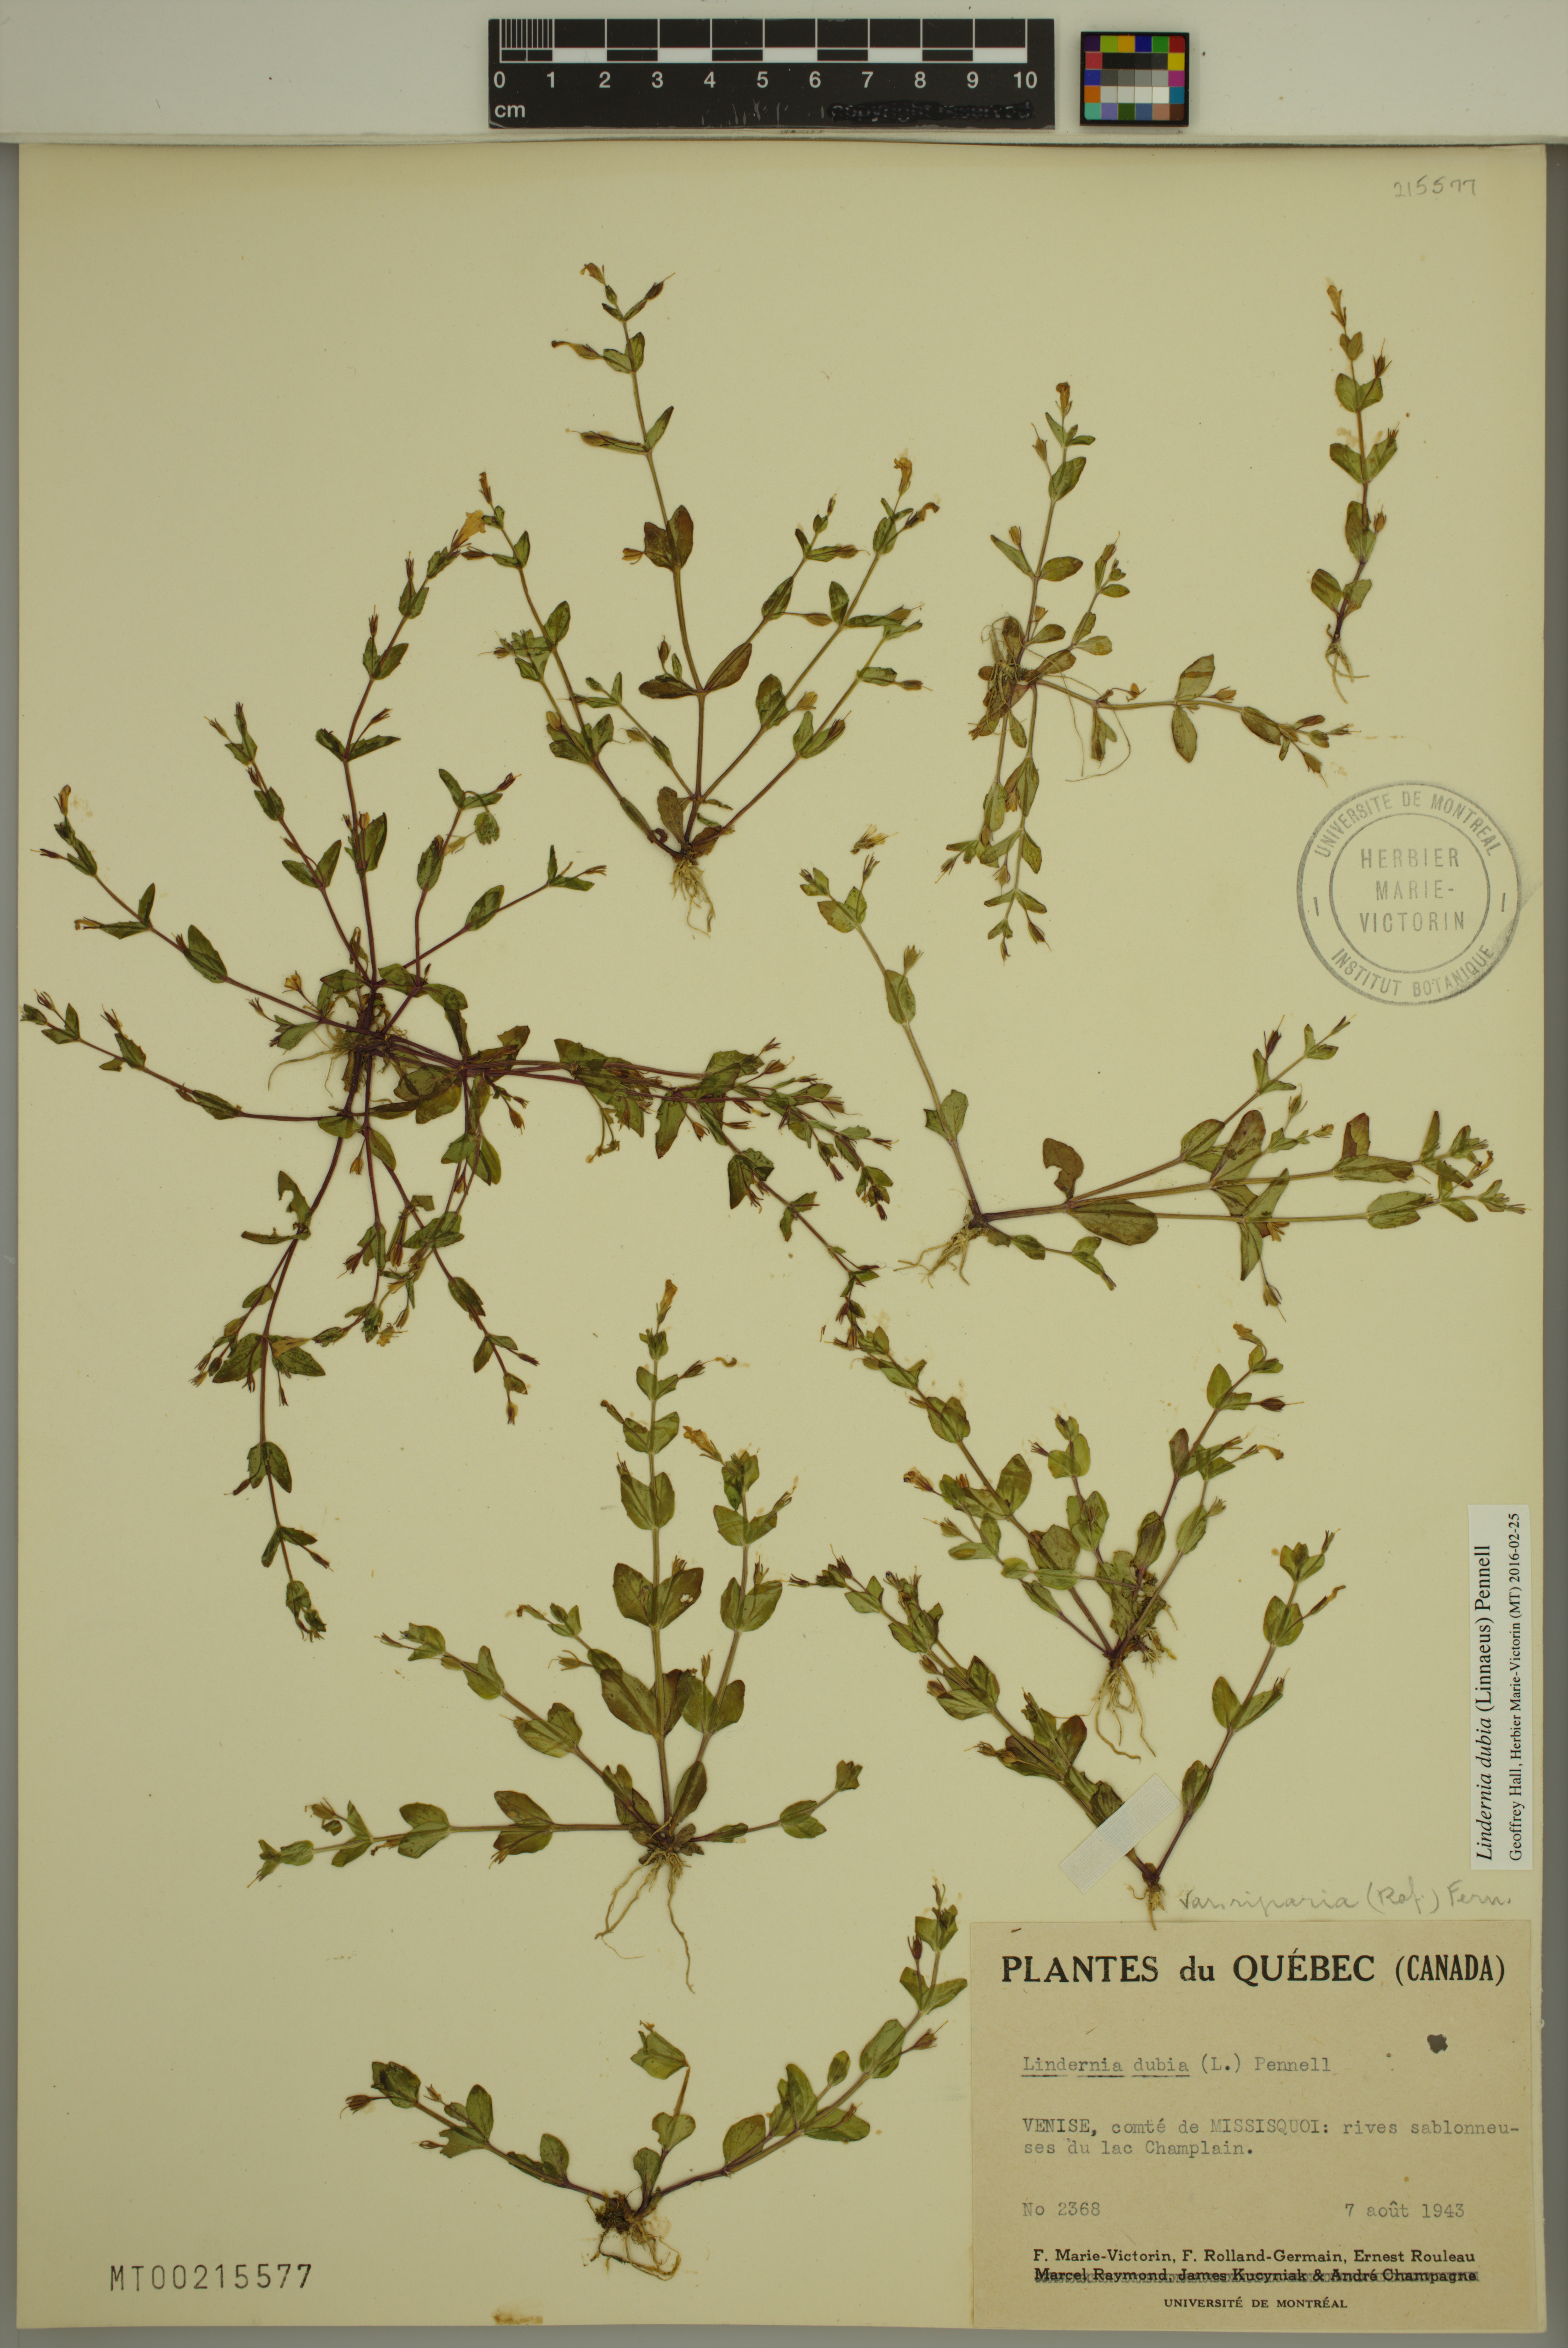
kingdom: Plantae
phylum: Tracheophyta
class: Magnoliopsida
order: Lamiales
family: Linderniaceae
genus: Lindernia
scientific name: Lindernia dubia
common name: Annual false pimpernel
